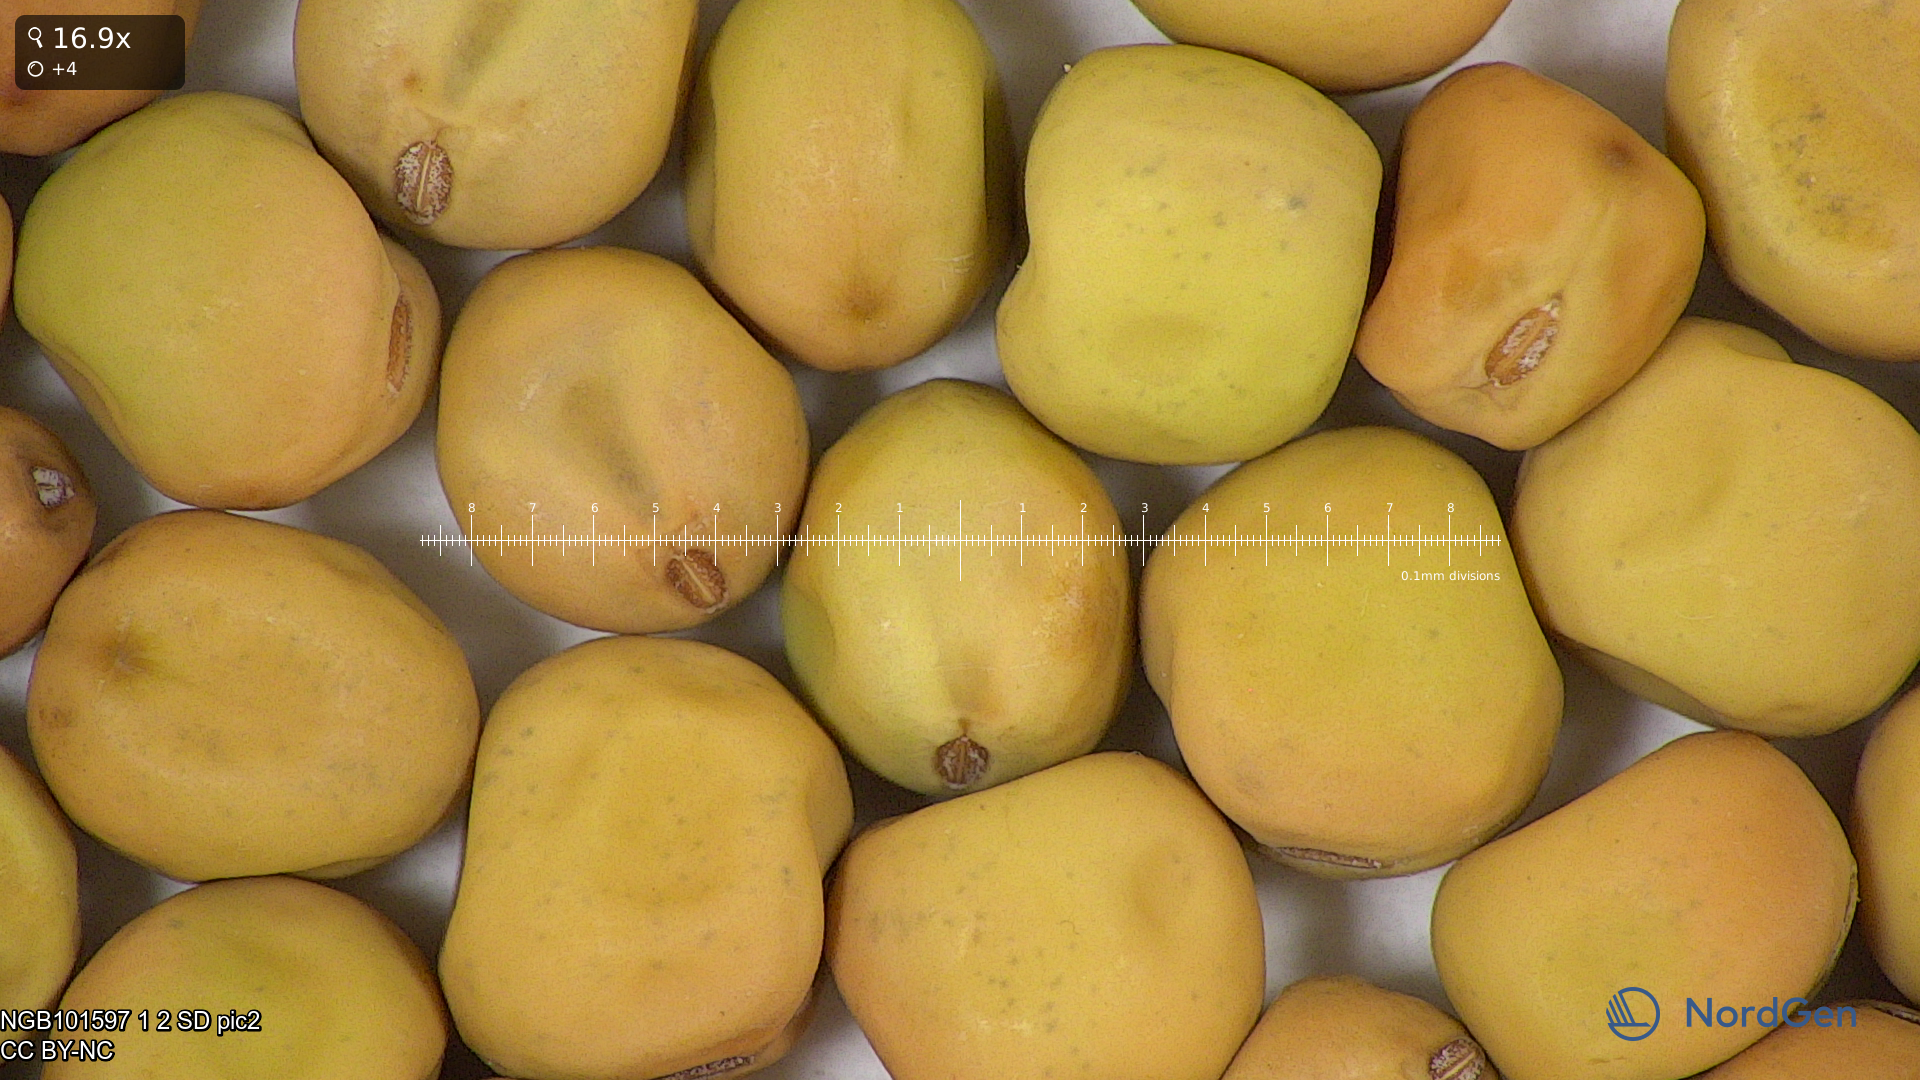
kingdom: Plantae
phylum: Tracheophyta
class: Magnoliopsida
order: Fabales
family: Fabaceae
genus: Lathyrus
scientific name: Lathyrus oleraceus
